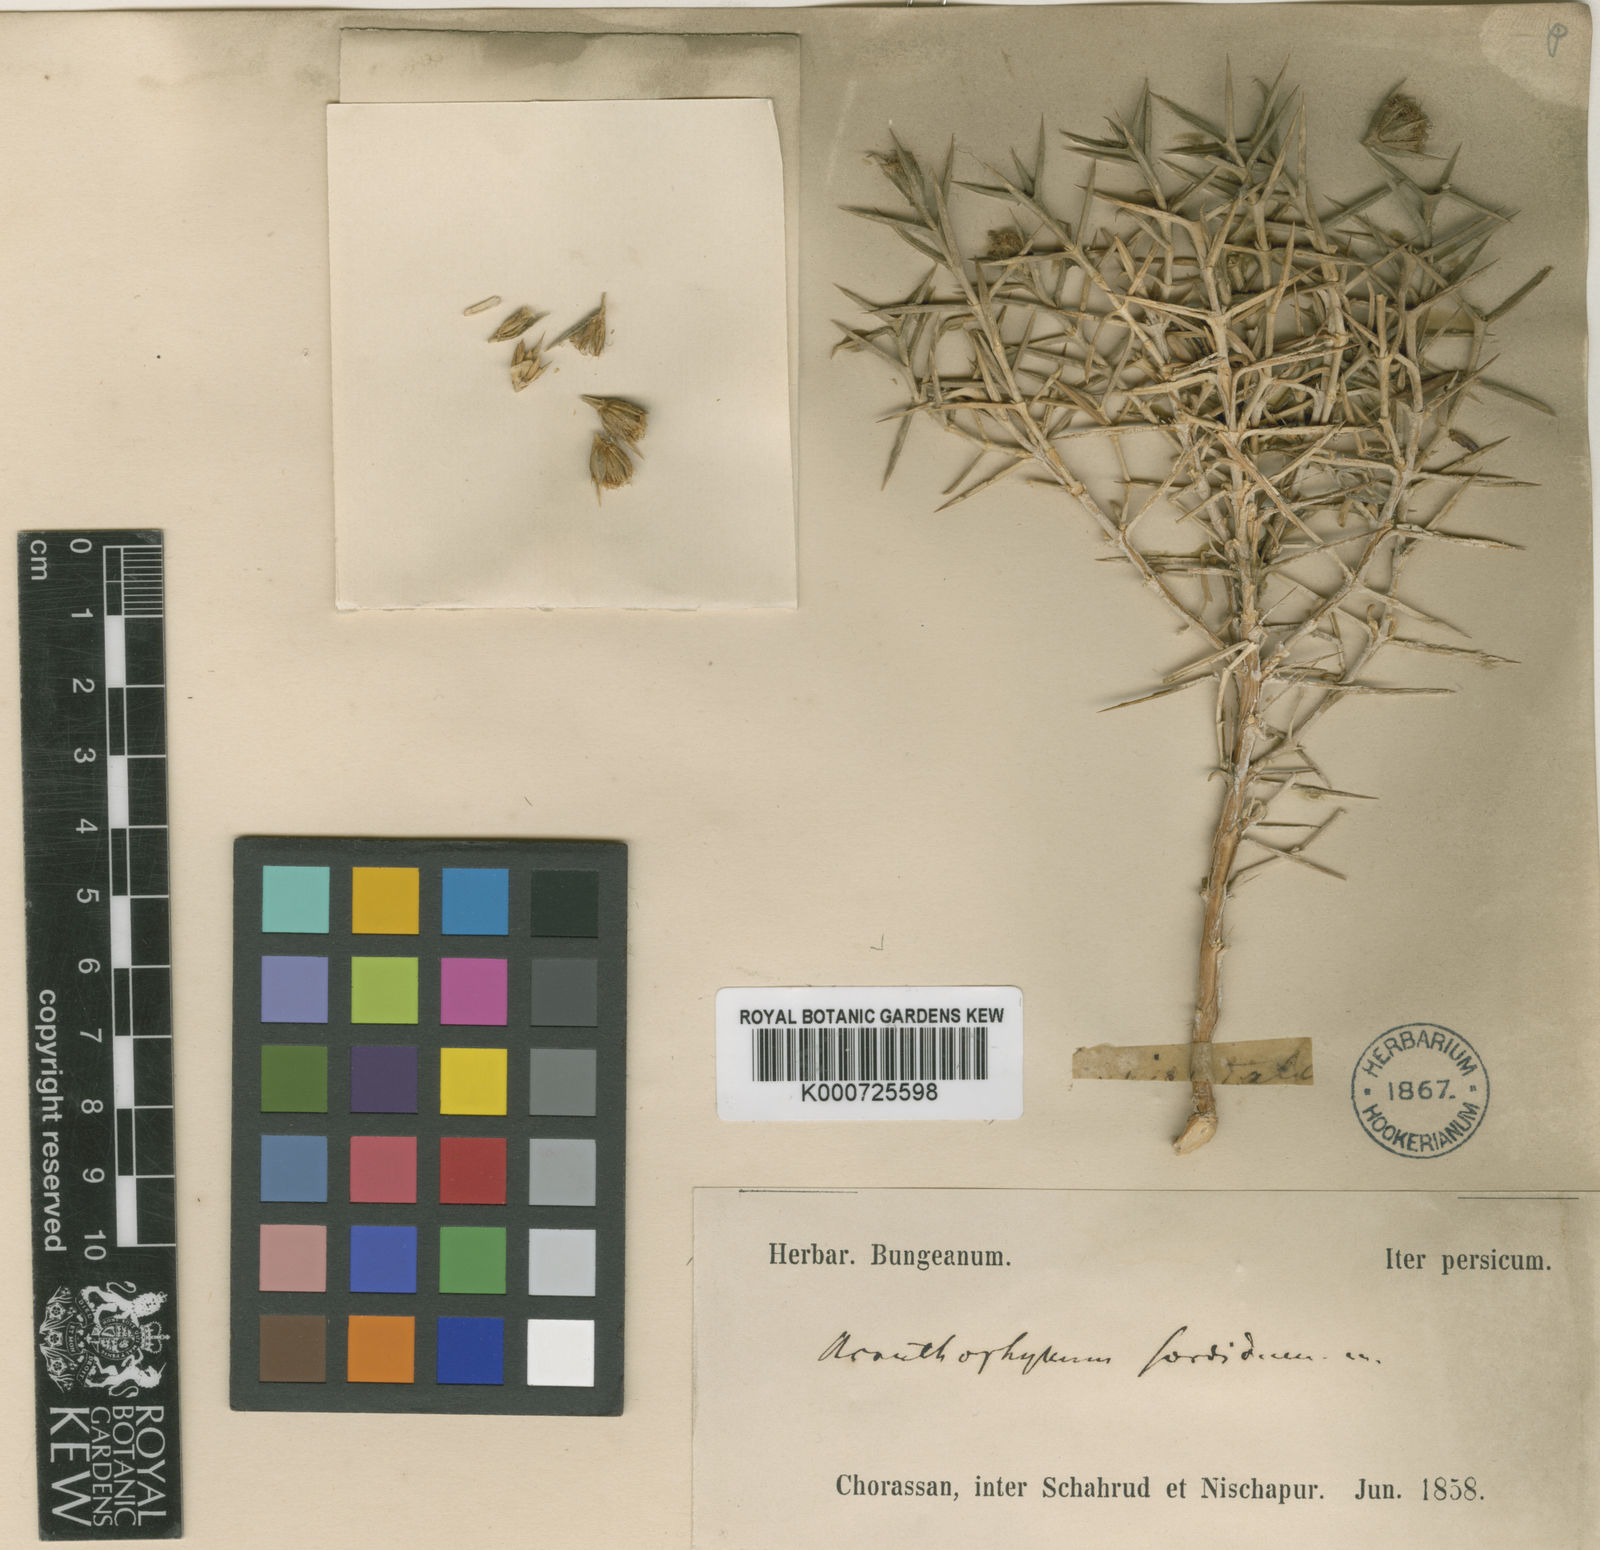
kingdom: Plantae
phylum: Tracheophyta
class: Magnoliopsida
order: Caryophyllales
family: Caryophyllaceae
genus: Acanthophyllum
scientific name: Acanthophyllum sordidum
